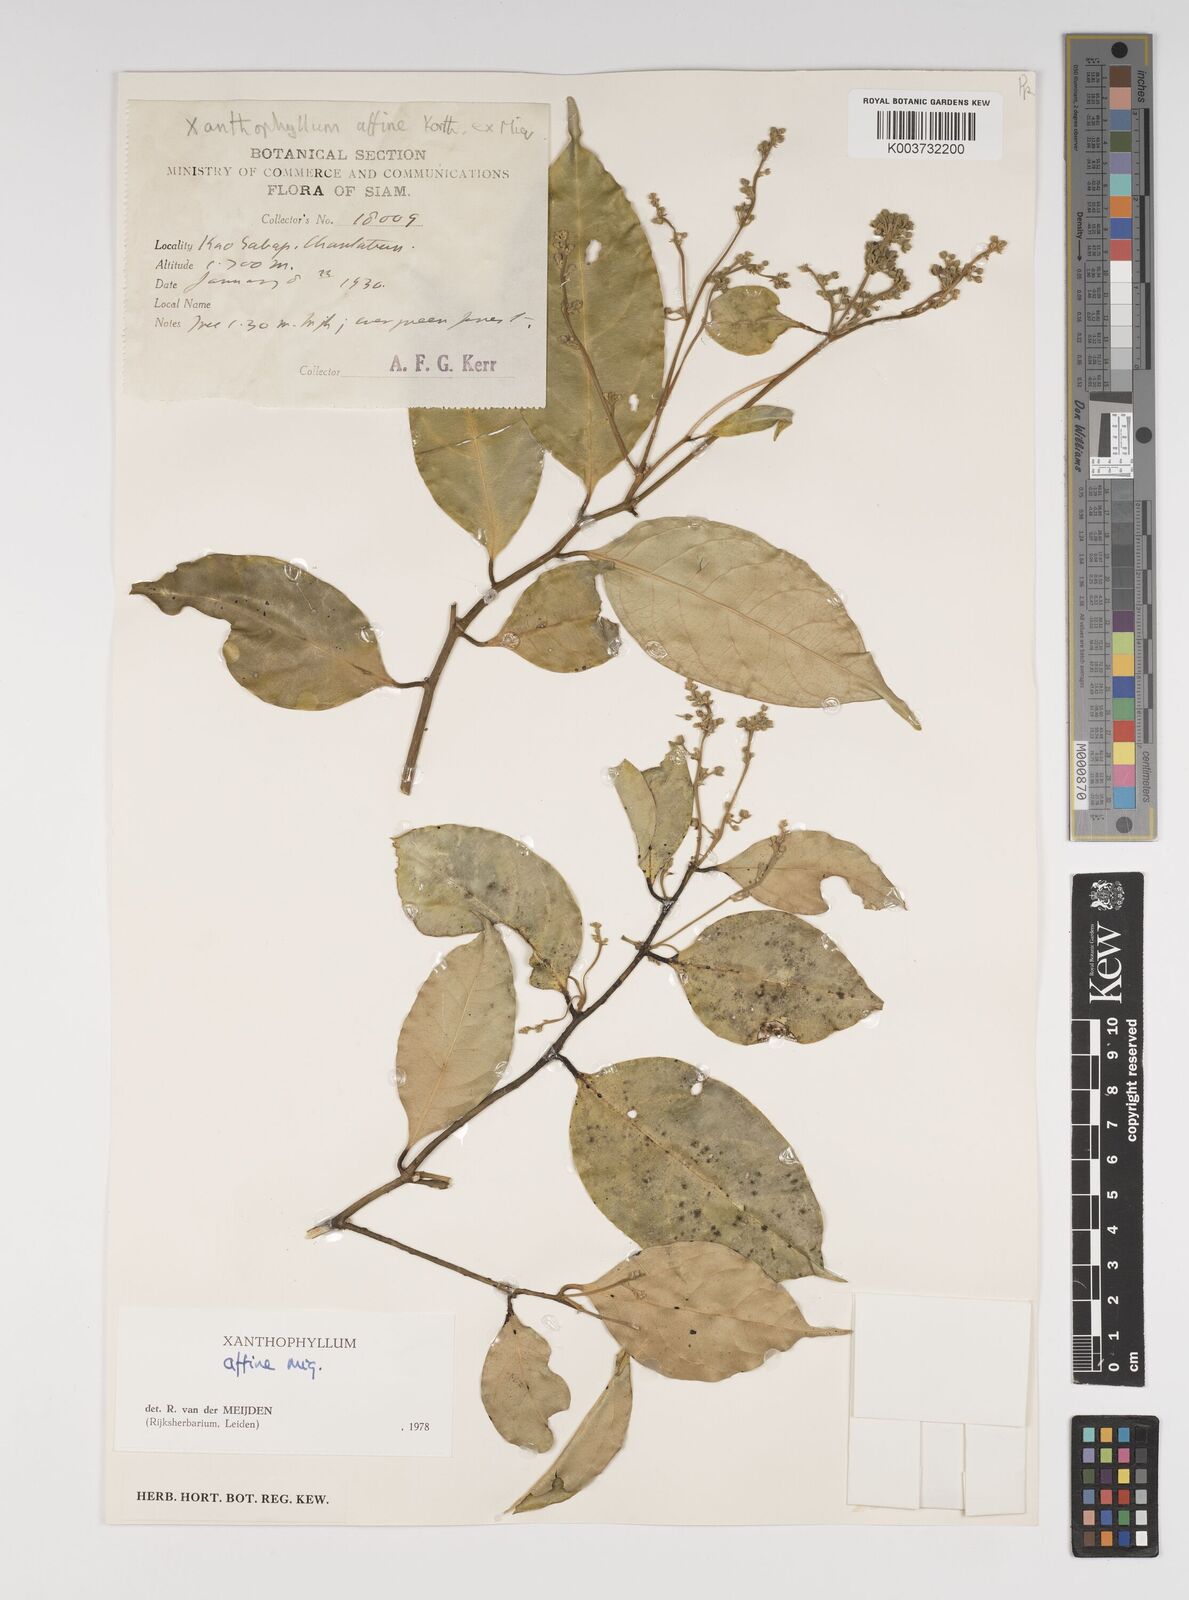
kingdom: Plantae
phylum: Tracheophyta
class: Magnoliopsida
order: Fabales
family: Polygalaceae
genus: Xanthophyllum
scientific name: Xanthophyllum flavescens
